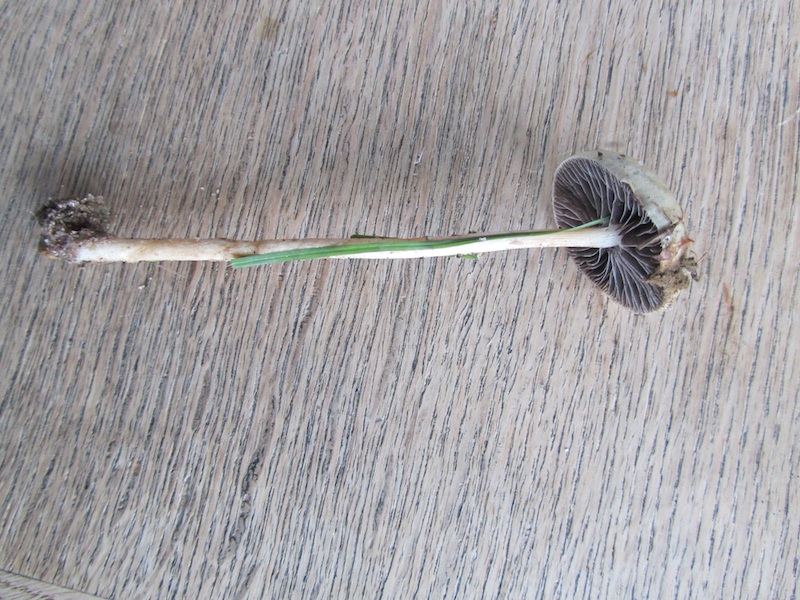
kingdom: Fungi
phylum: Basidiomycota
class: Agaricomycetes
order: Agaricales
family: Strophariaceae
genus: Protostropharia
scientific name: Protostropharia semiglobata
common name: halvkugleformet bredblad
